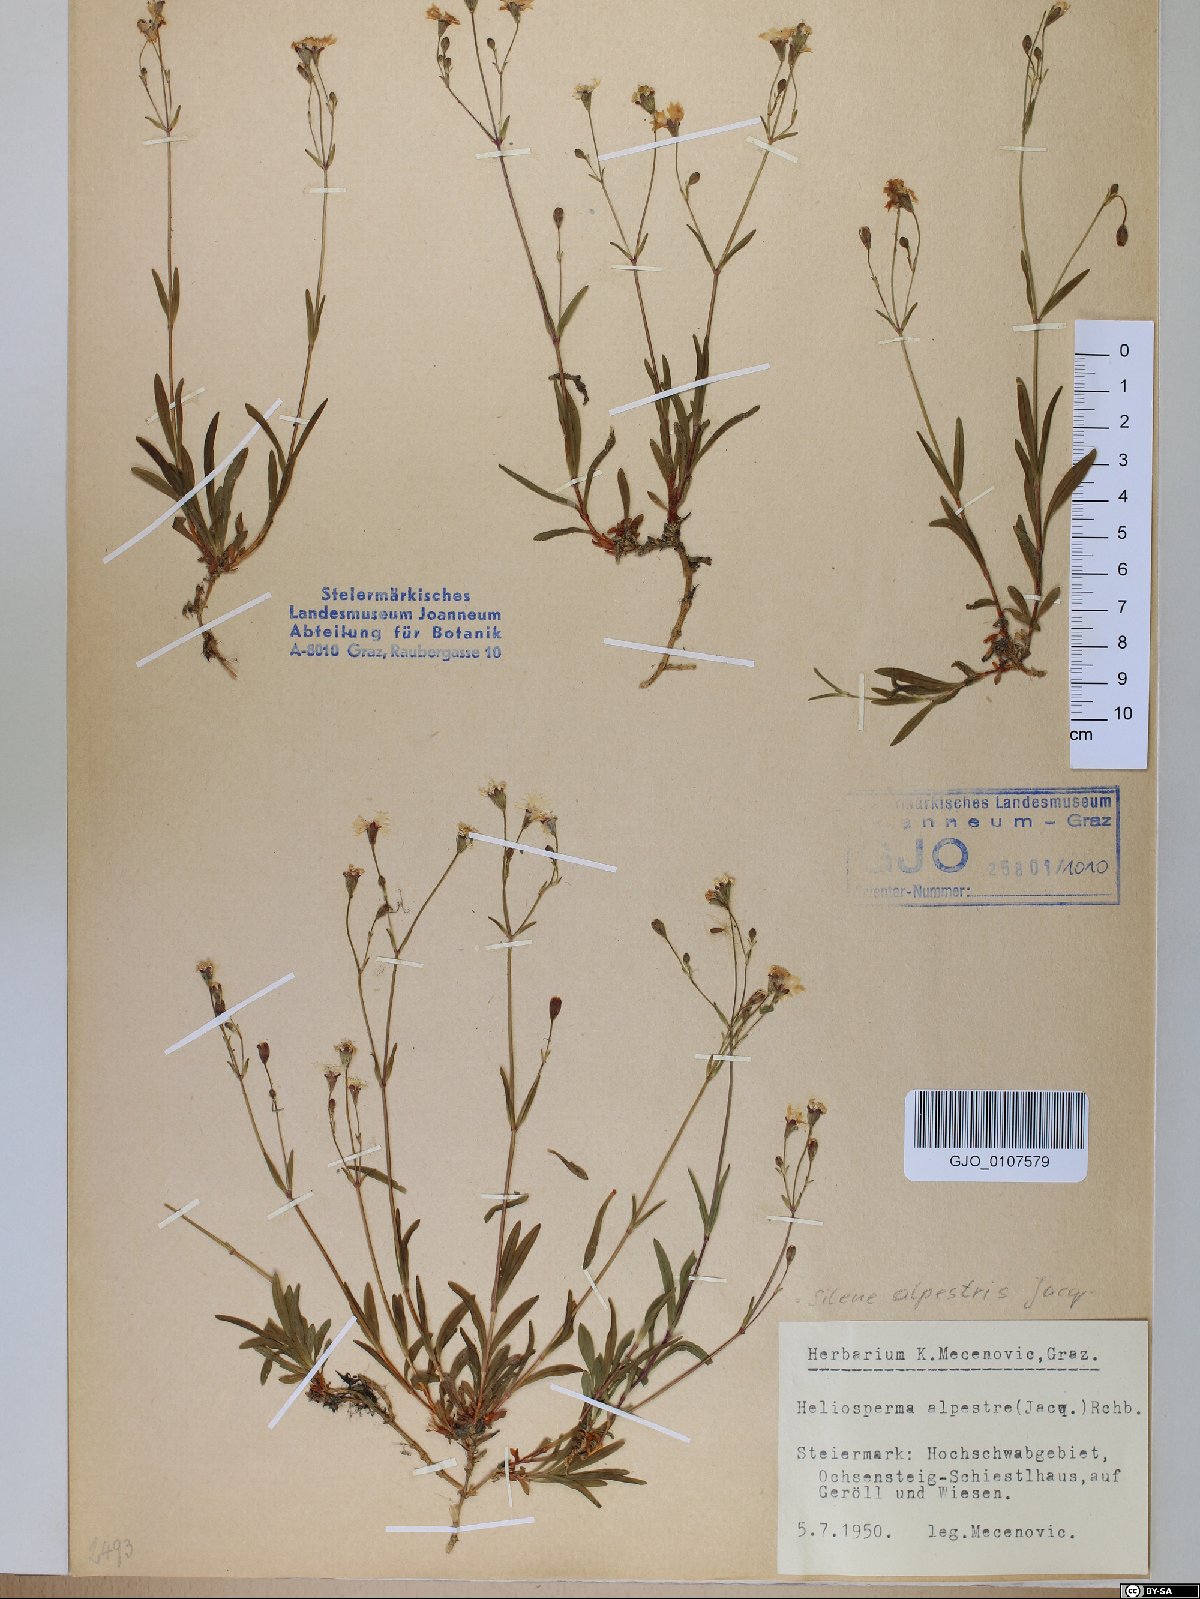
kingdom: Plantae
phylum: Tracheophyta
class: Magnoliopsida
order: Caryophyllales
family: Caryophyllaceae
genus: Heliosperma
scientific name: Heliosperma alpestre
